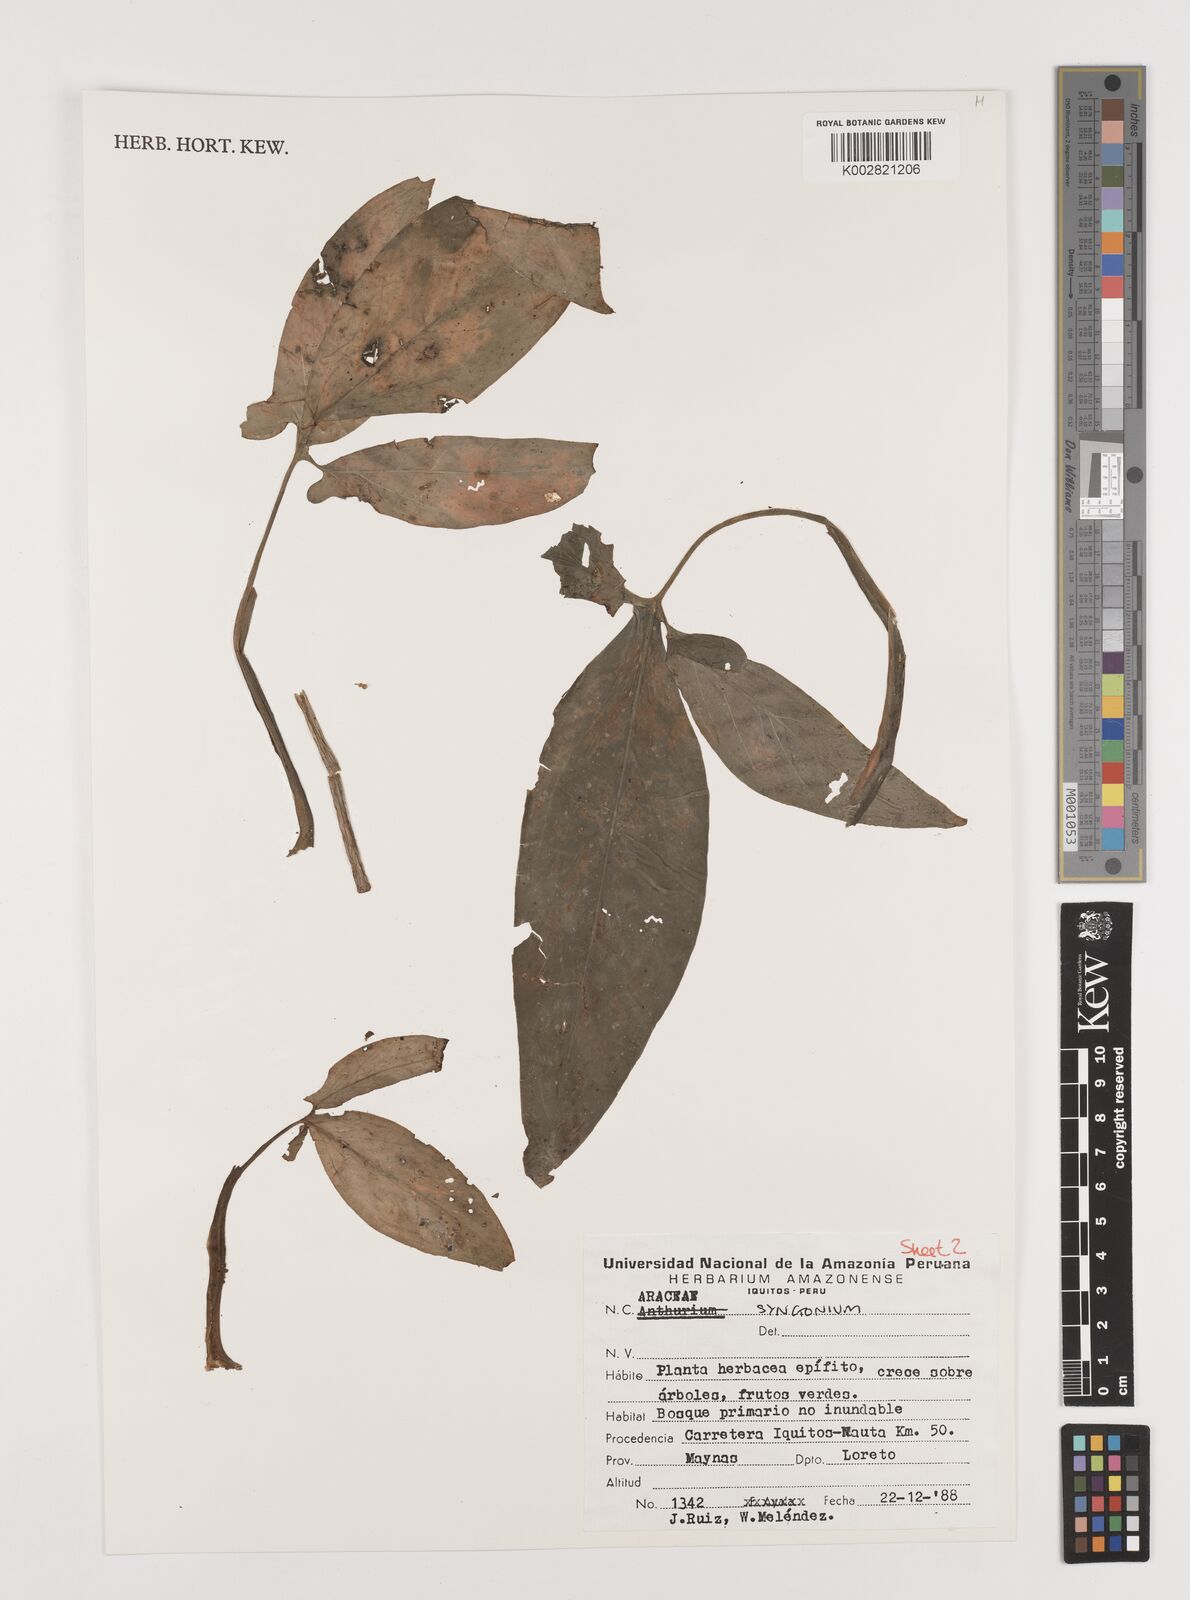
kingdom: Plantae
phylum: Tracheophyta
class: Liliopsida
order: Alismatales
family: Araceae
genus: Syngonium
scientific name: Syngonium
